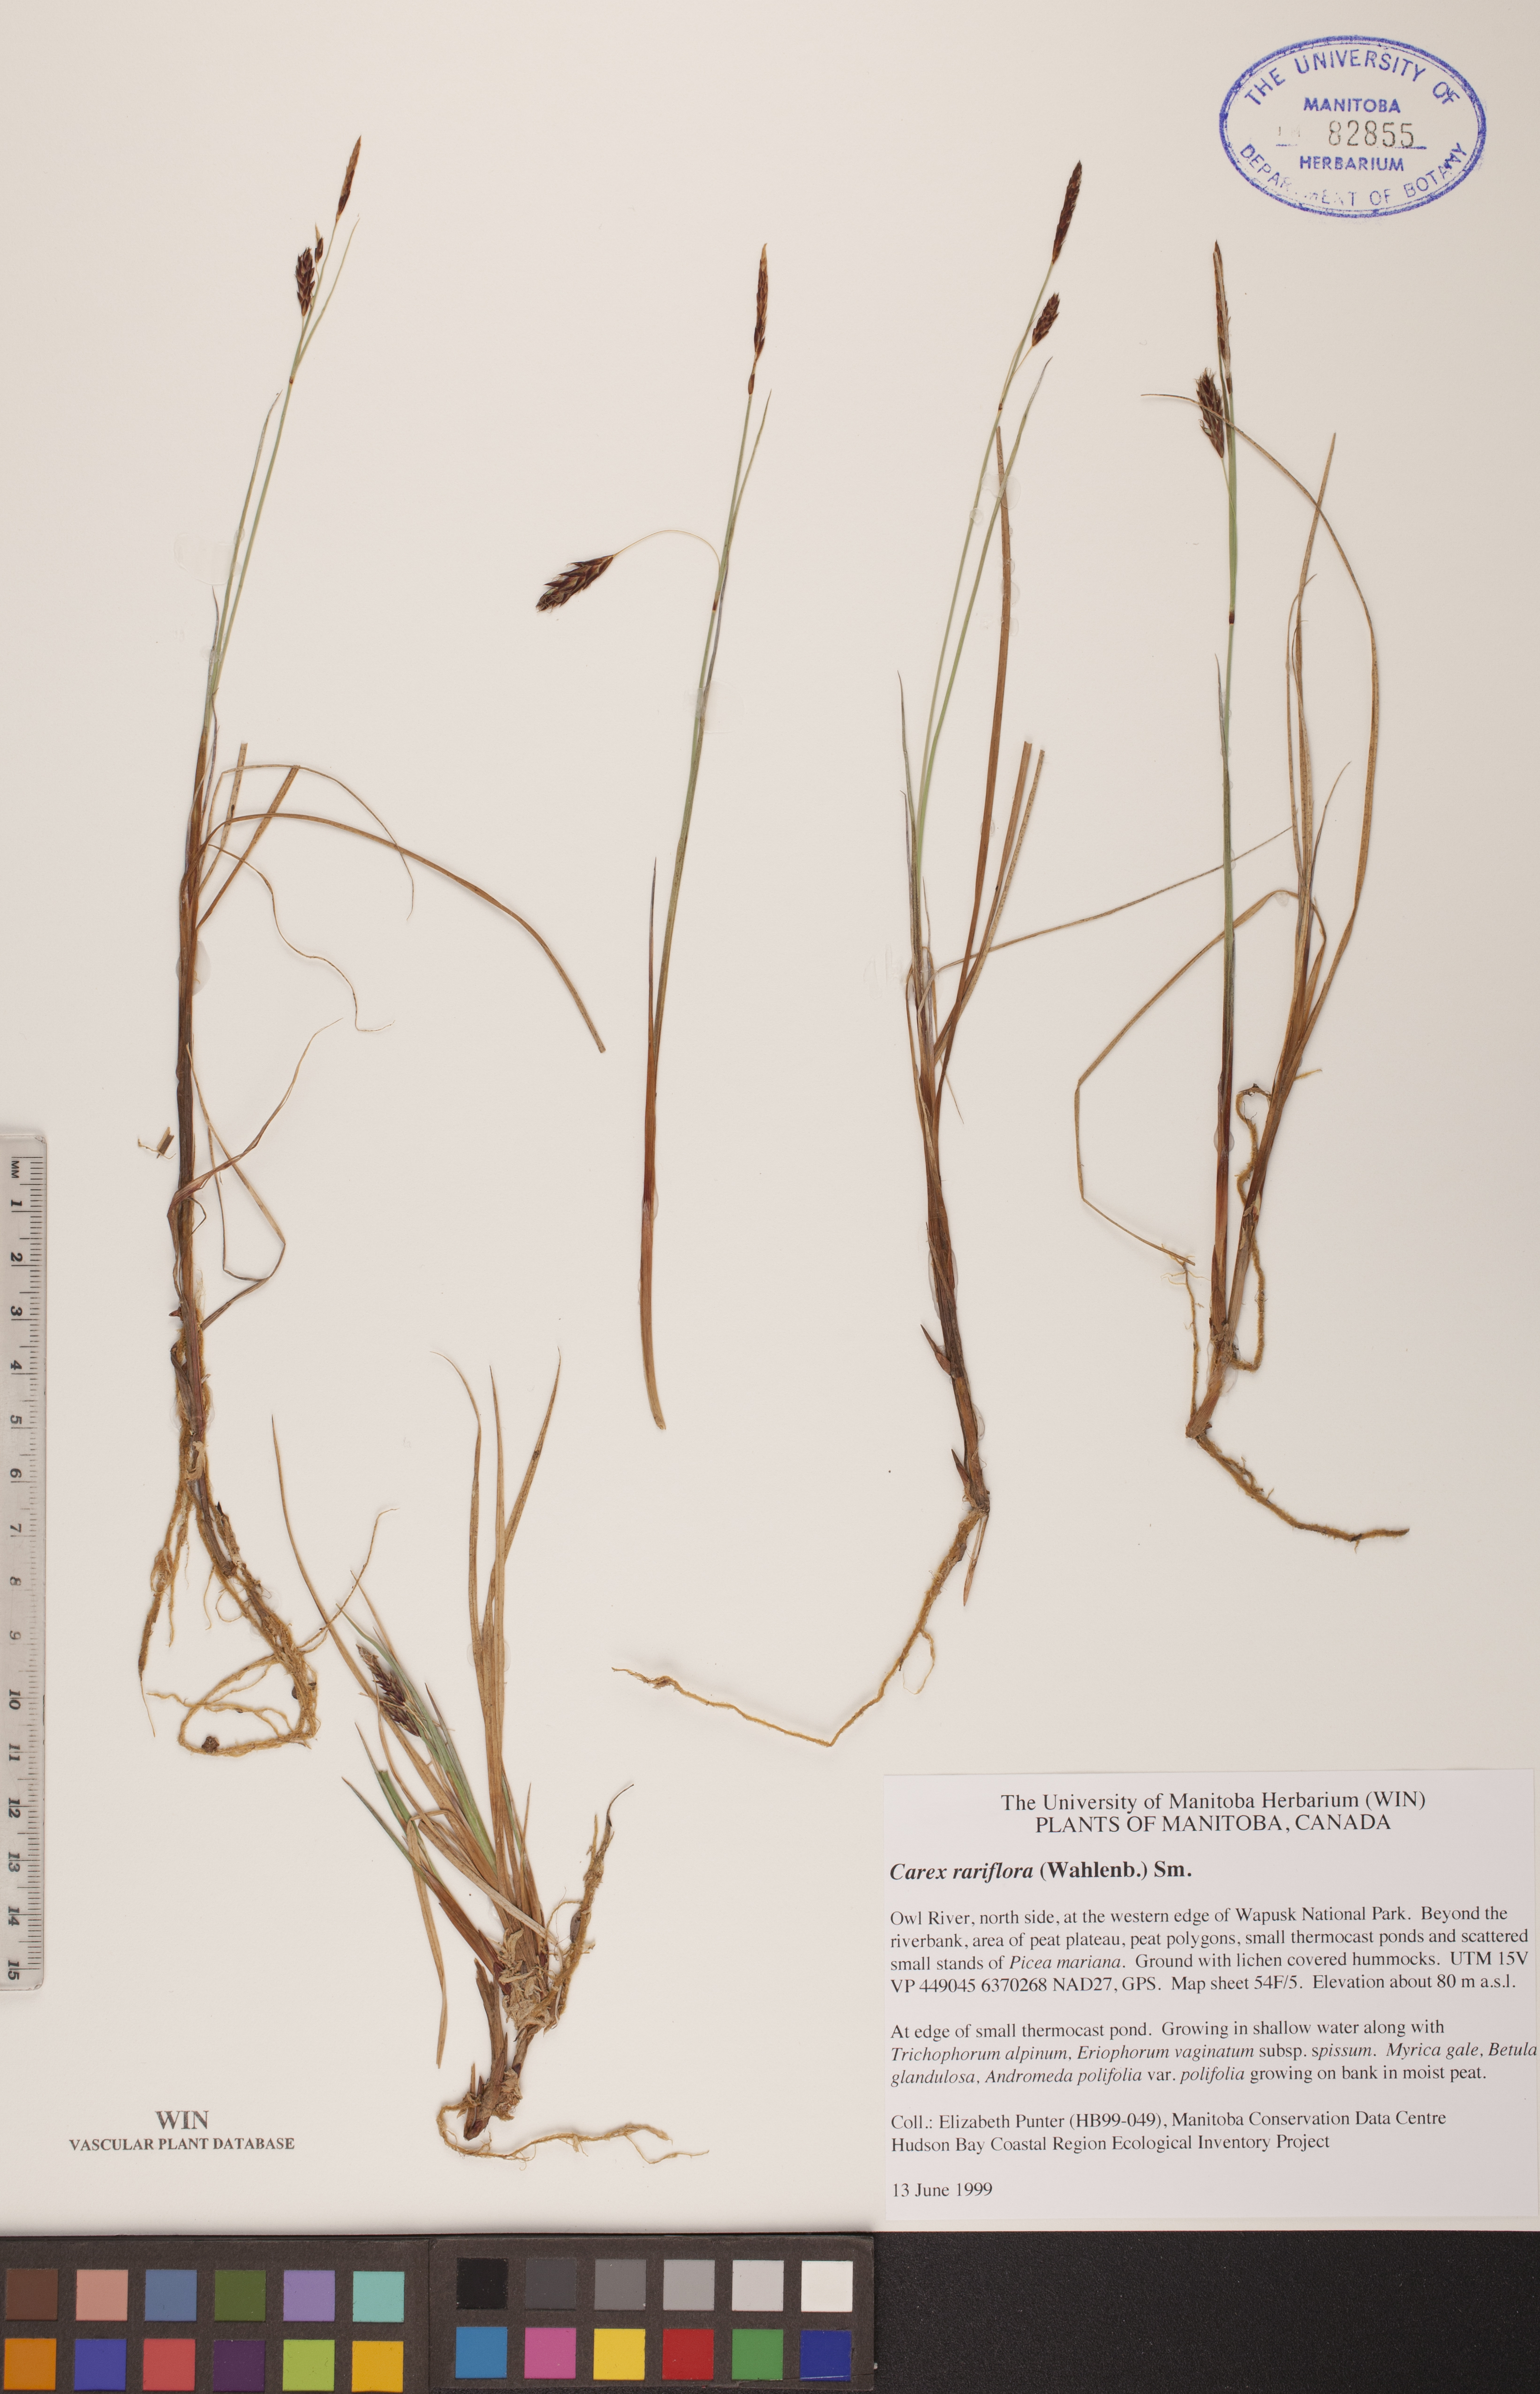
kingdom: Plantae
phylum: Tracheophyta
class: Liliopsida
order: Poales
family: Cyperaceae
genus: Carex
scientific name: Carex rariflora
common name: Loose-flowered alpine sedge
